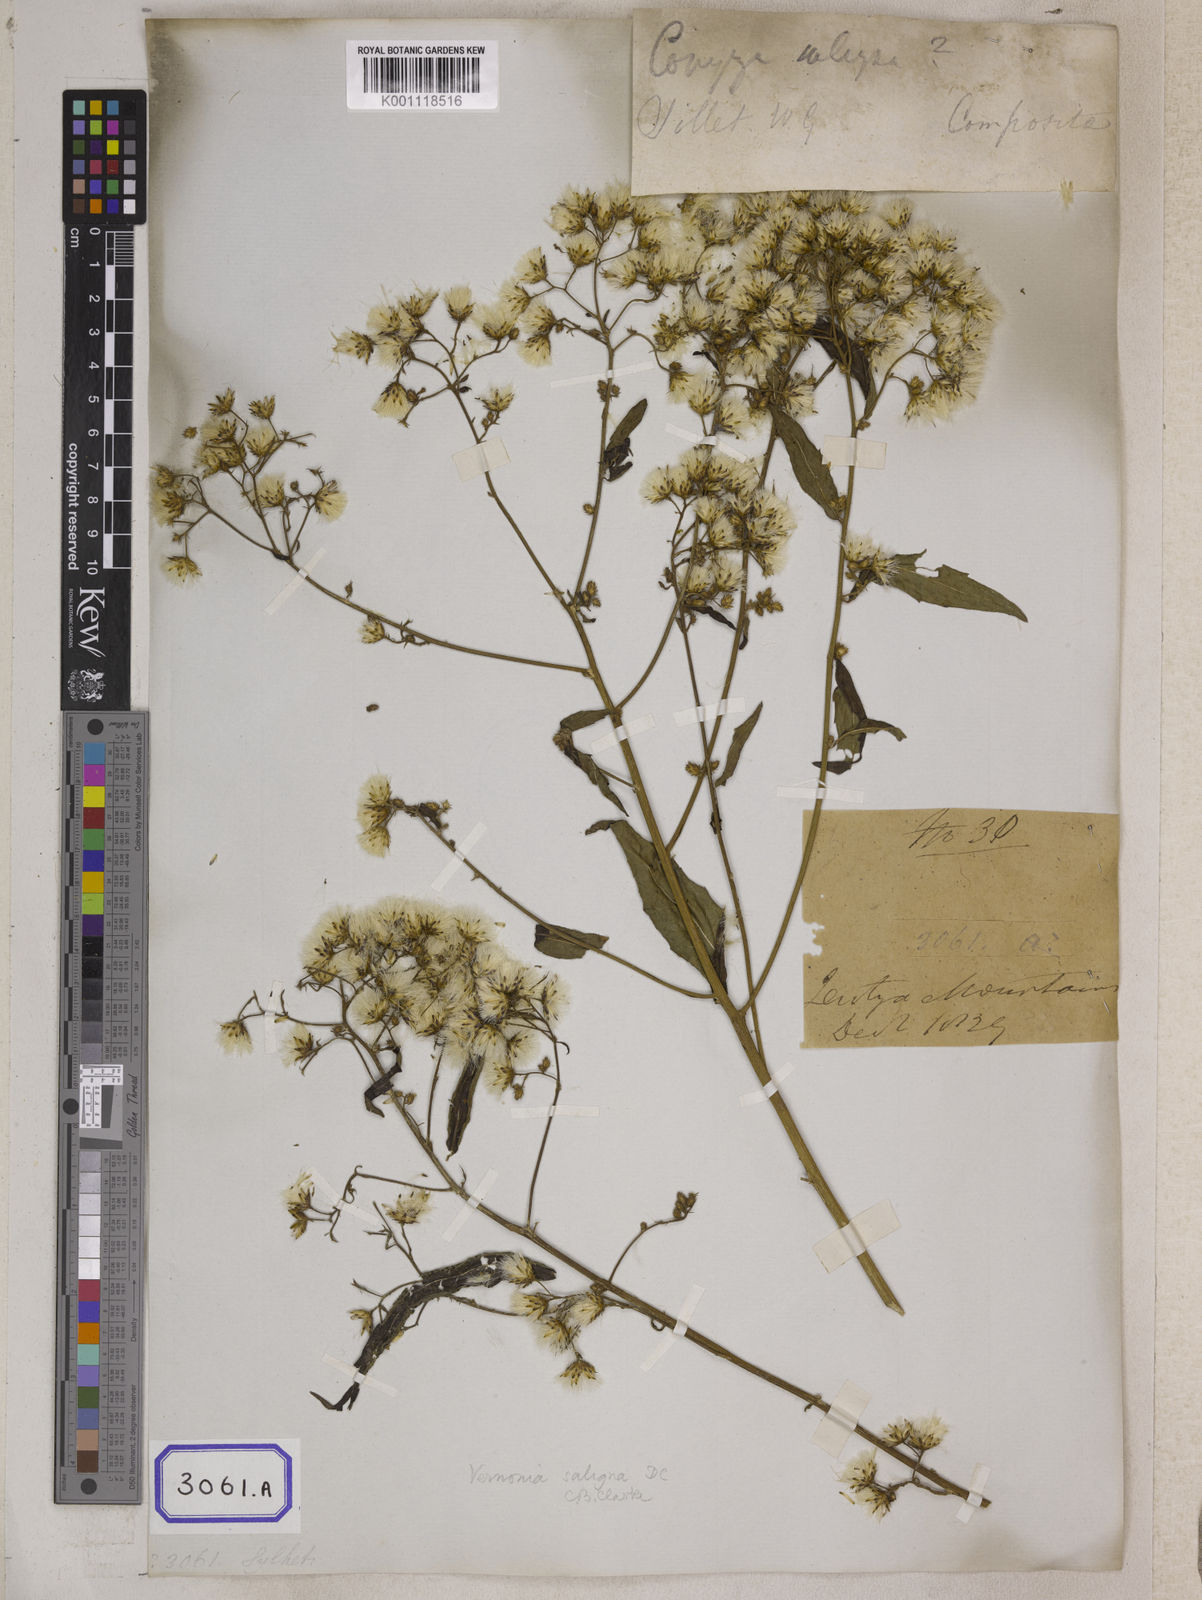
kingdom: Plantae
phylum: Tracheophyta
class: Magnoliopsida
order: Asterales
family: Asteraceae
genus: Acilepis
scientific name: Acilepis saligna
